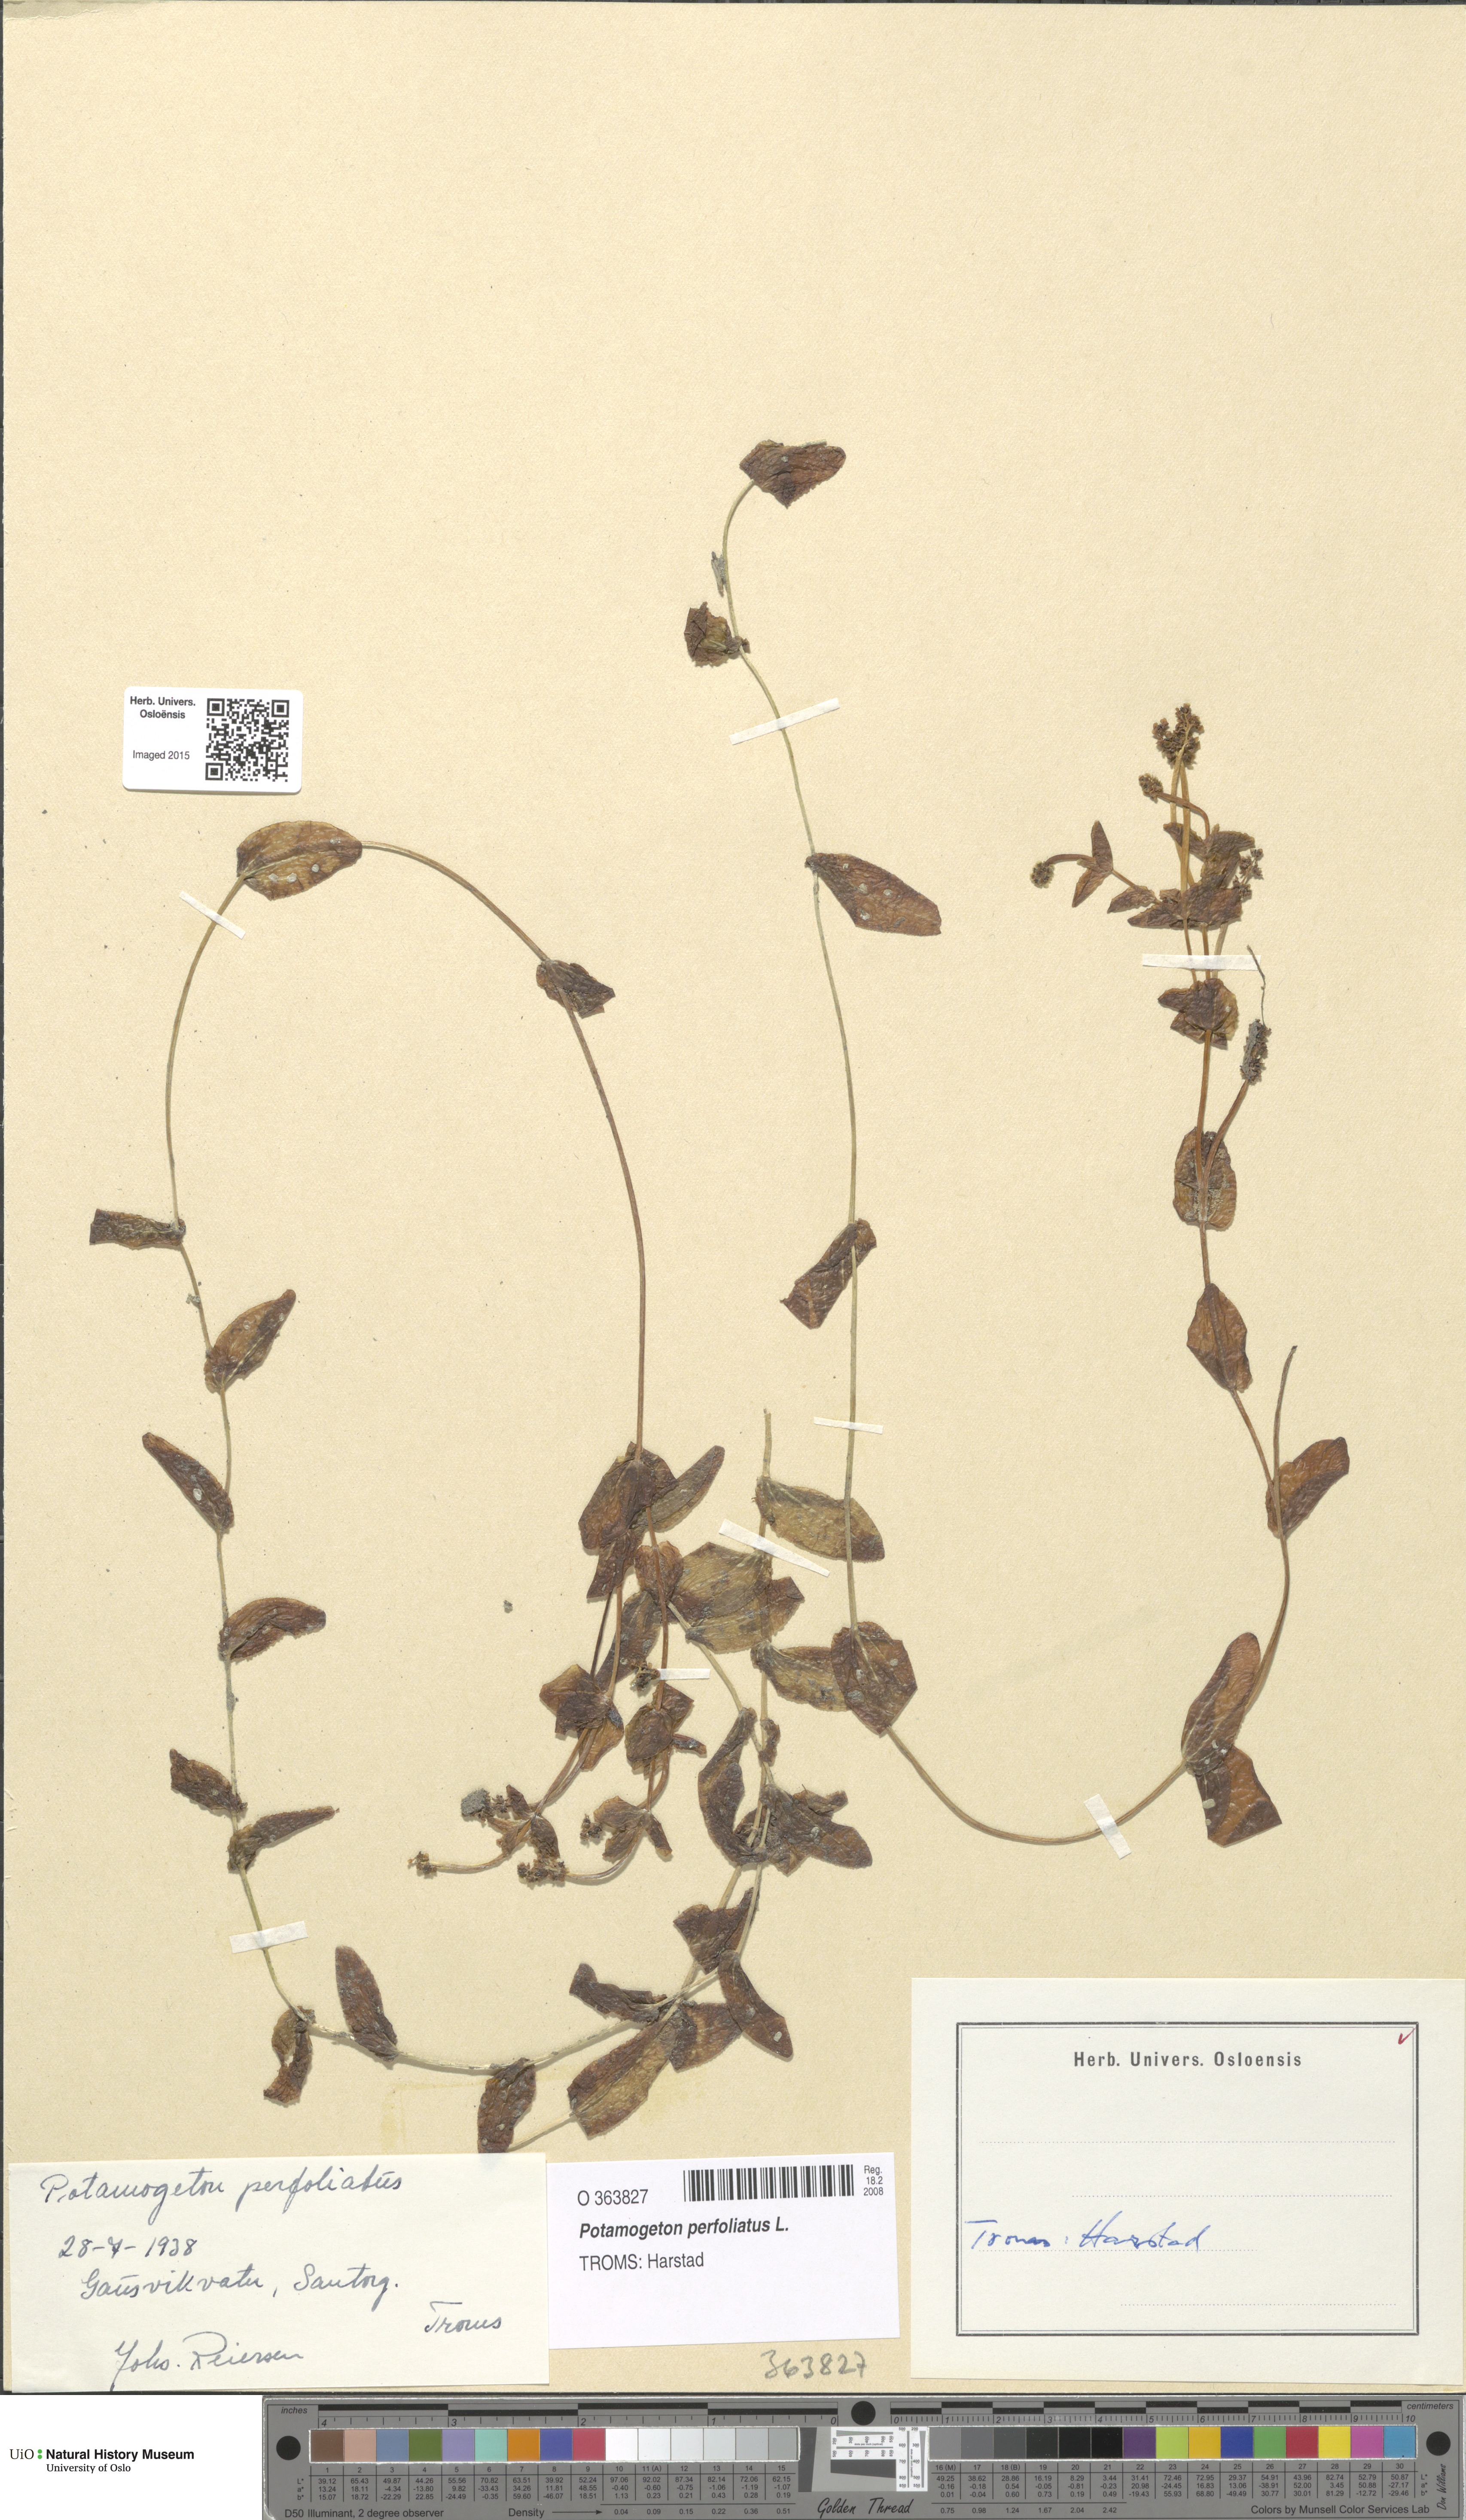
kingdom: Plantae
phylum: Tracheophyta
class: Liliopsida
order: Alismatales
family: Potamogetonaceae
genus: Potamogeton
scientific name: Potamogeton perfoliatus
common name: Perfoliate pondweed
